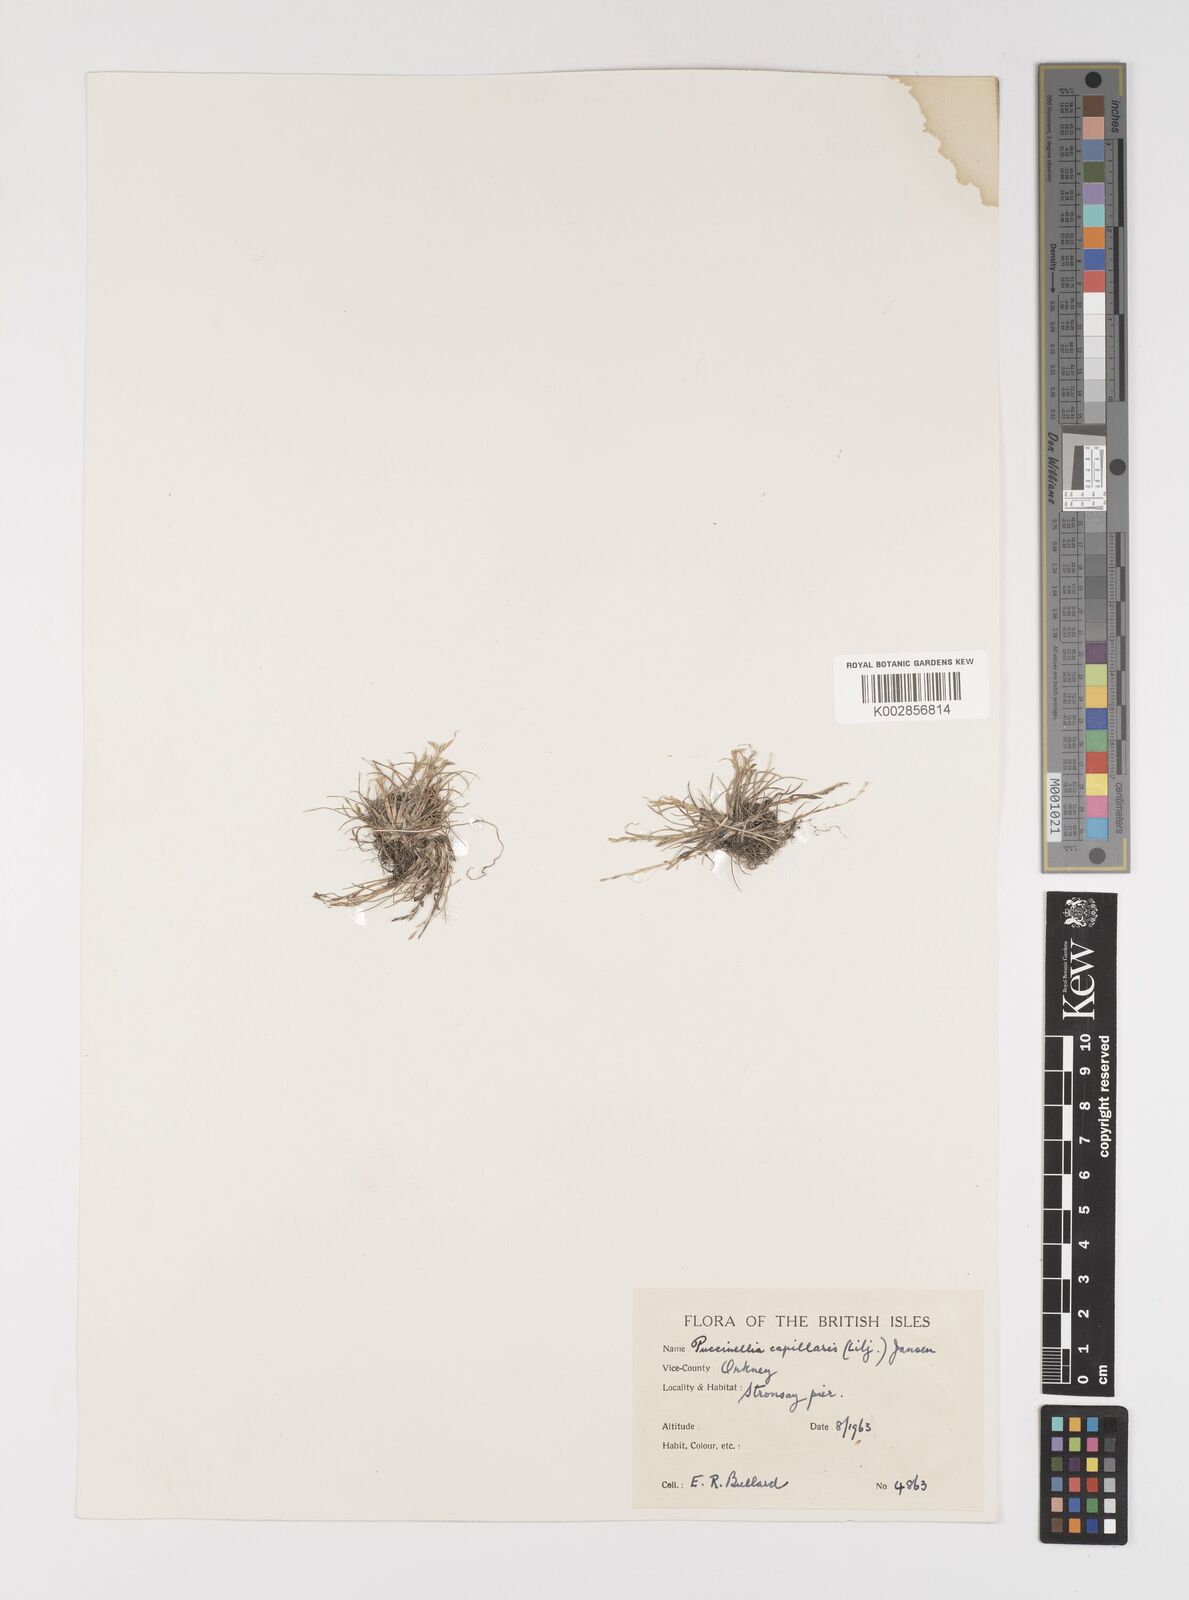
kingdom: Plantae
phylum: Tracheophyta
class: Liliopsida
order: Poales
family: Poaceae
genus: Puccinellia
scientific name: Puccinellia distans
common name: Weeping alkaligrass
